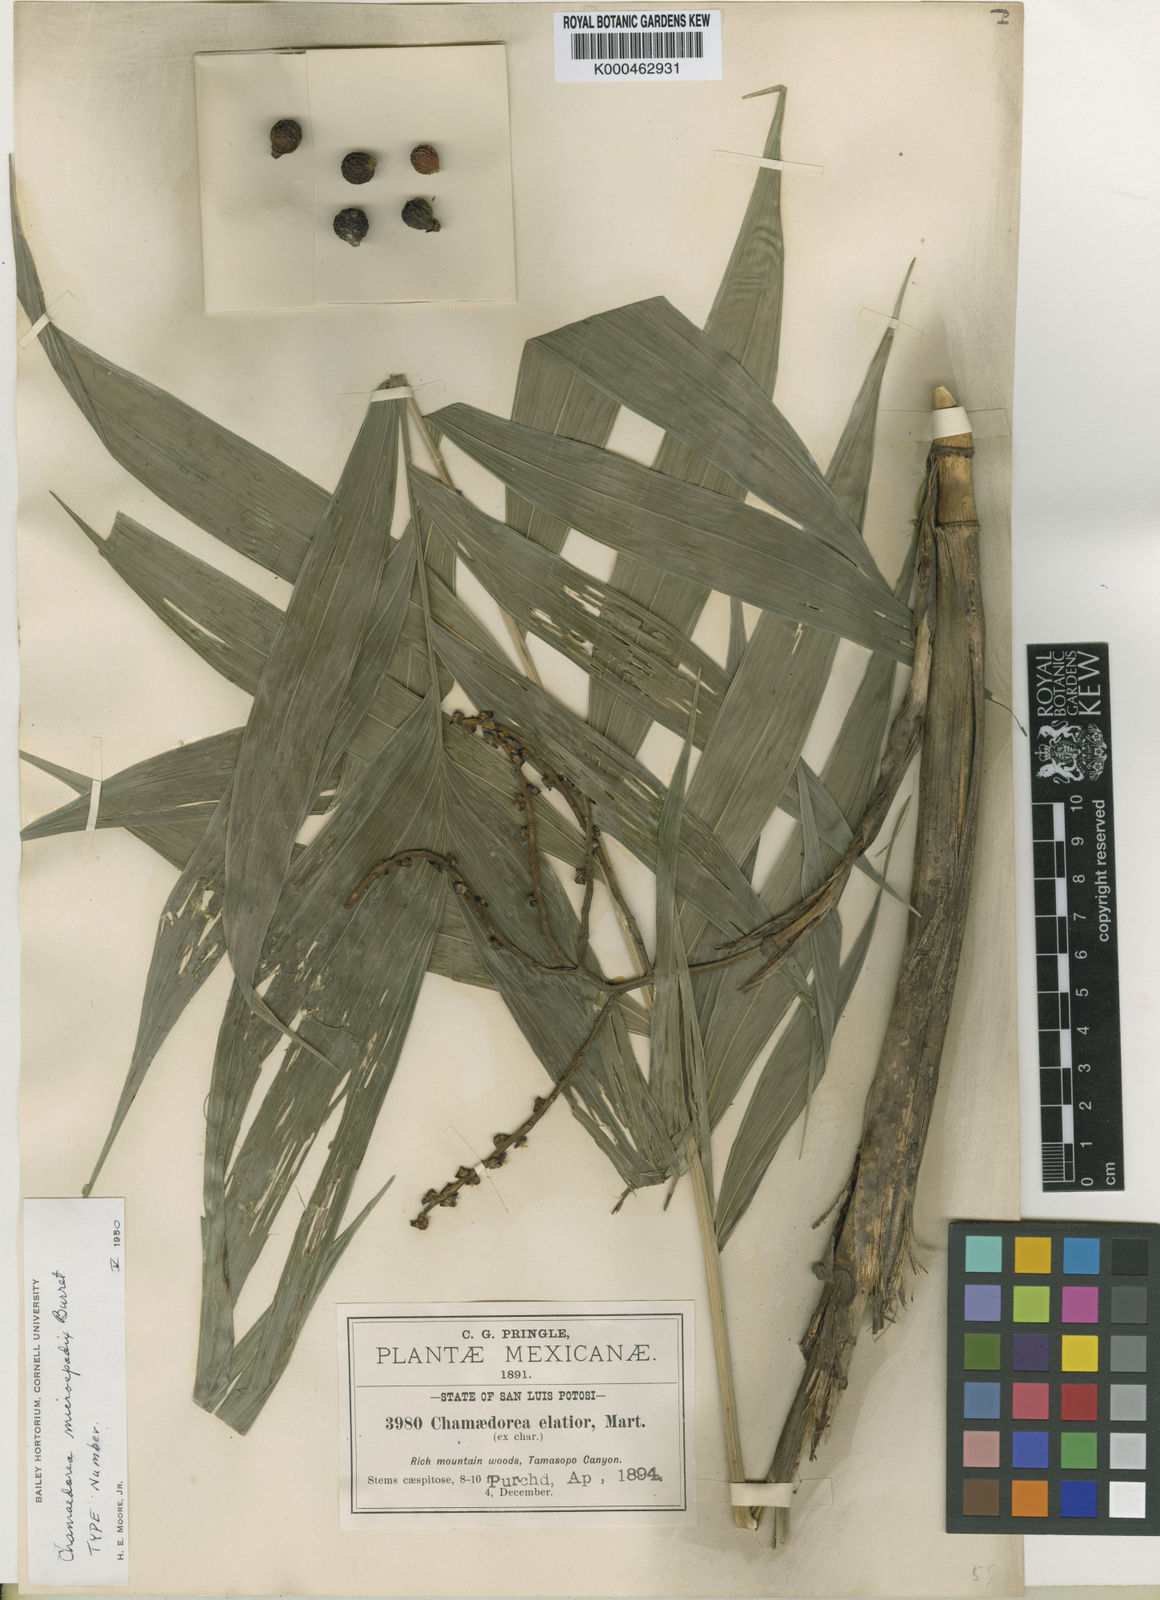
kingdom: Plantae
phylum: Tracheophyta
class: Liliopsida
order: Arecales
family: Arecaceae
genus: Chamaedorea
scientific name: Chamaedorea microspadix
